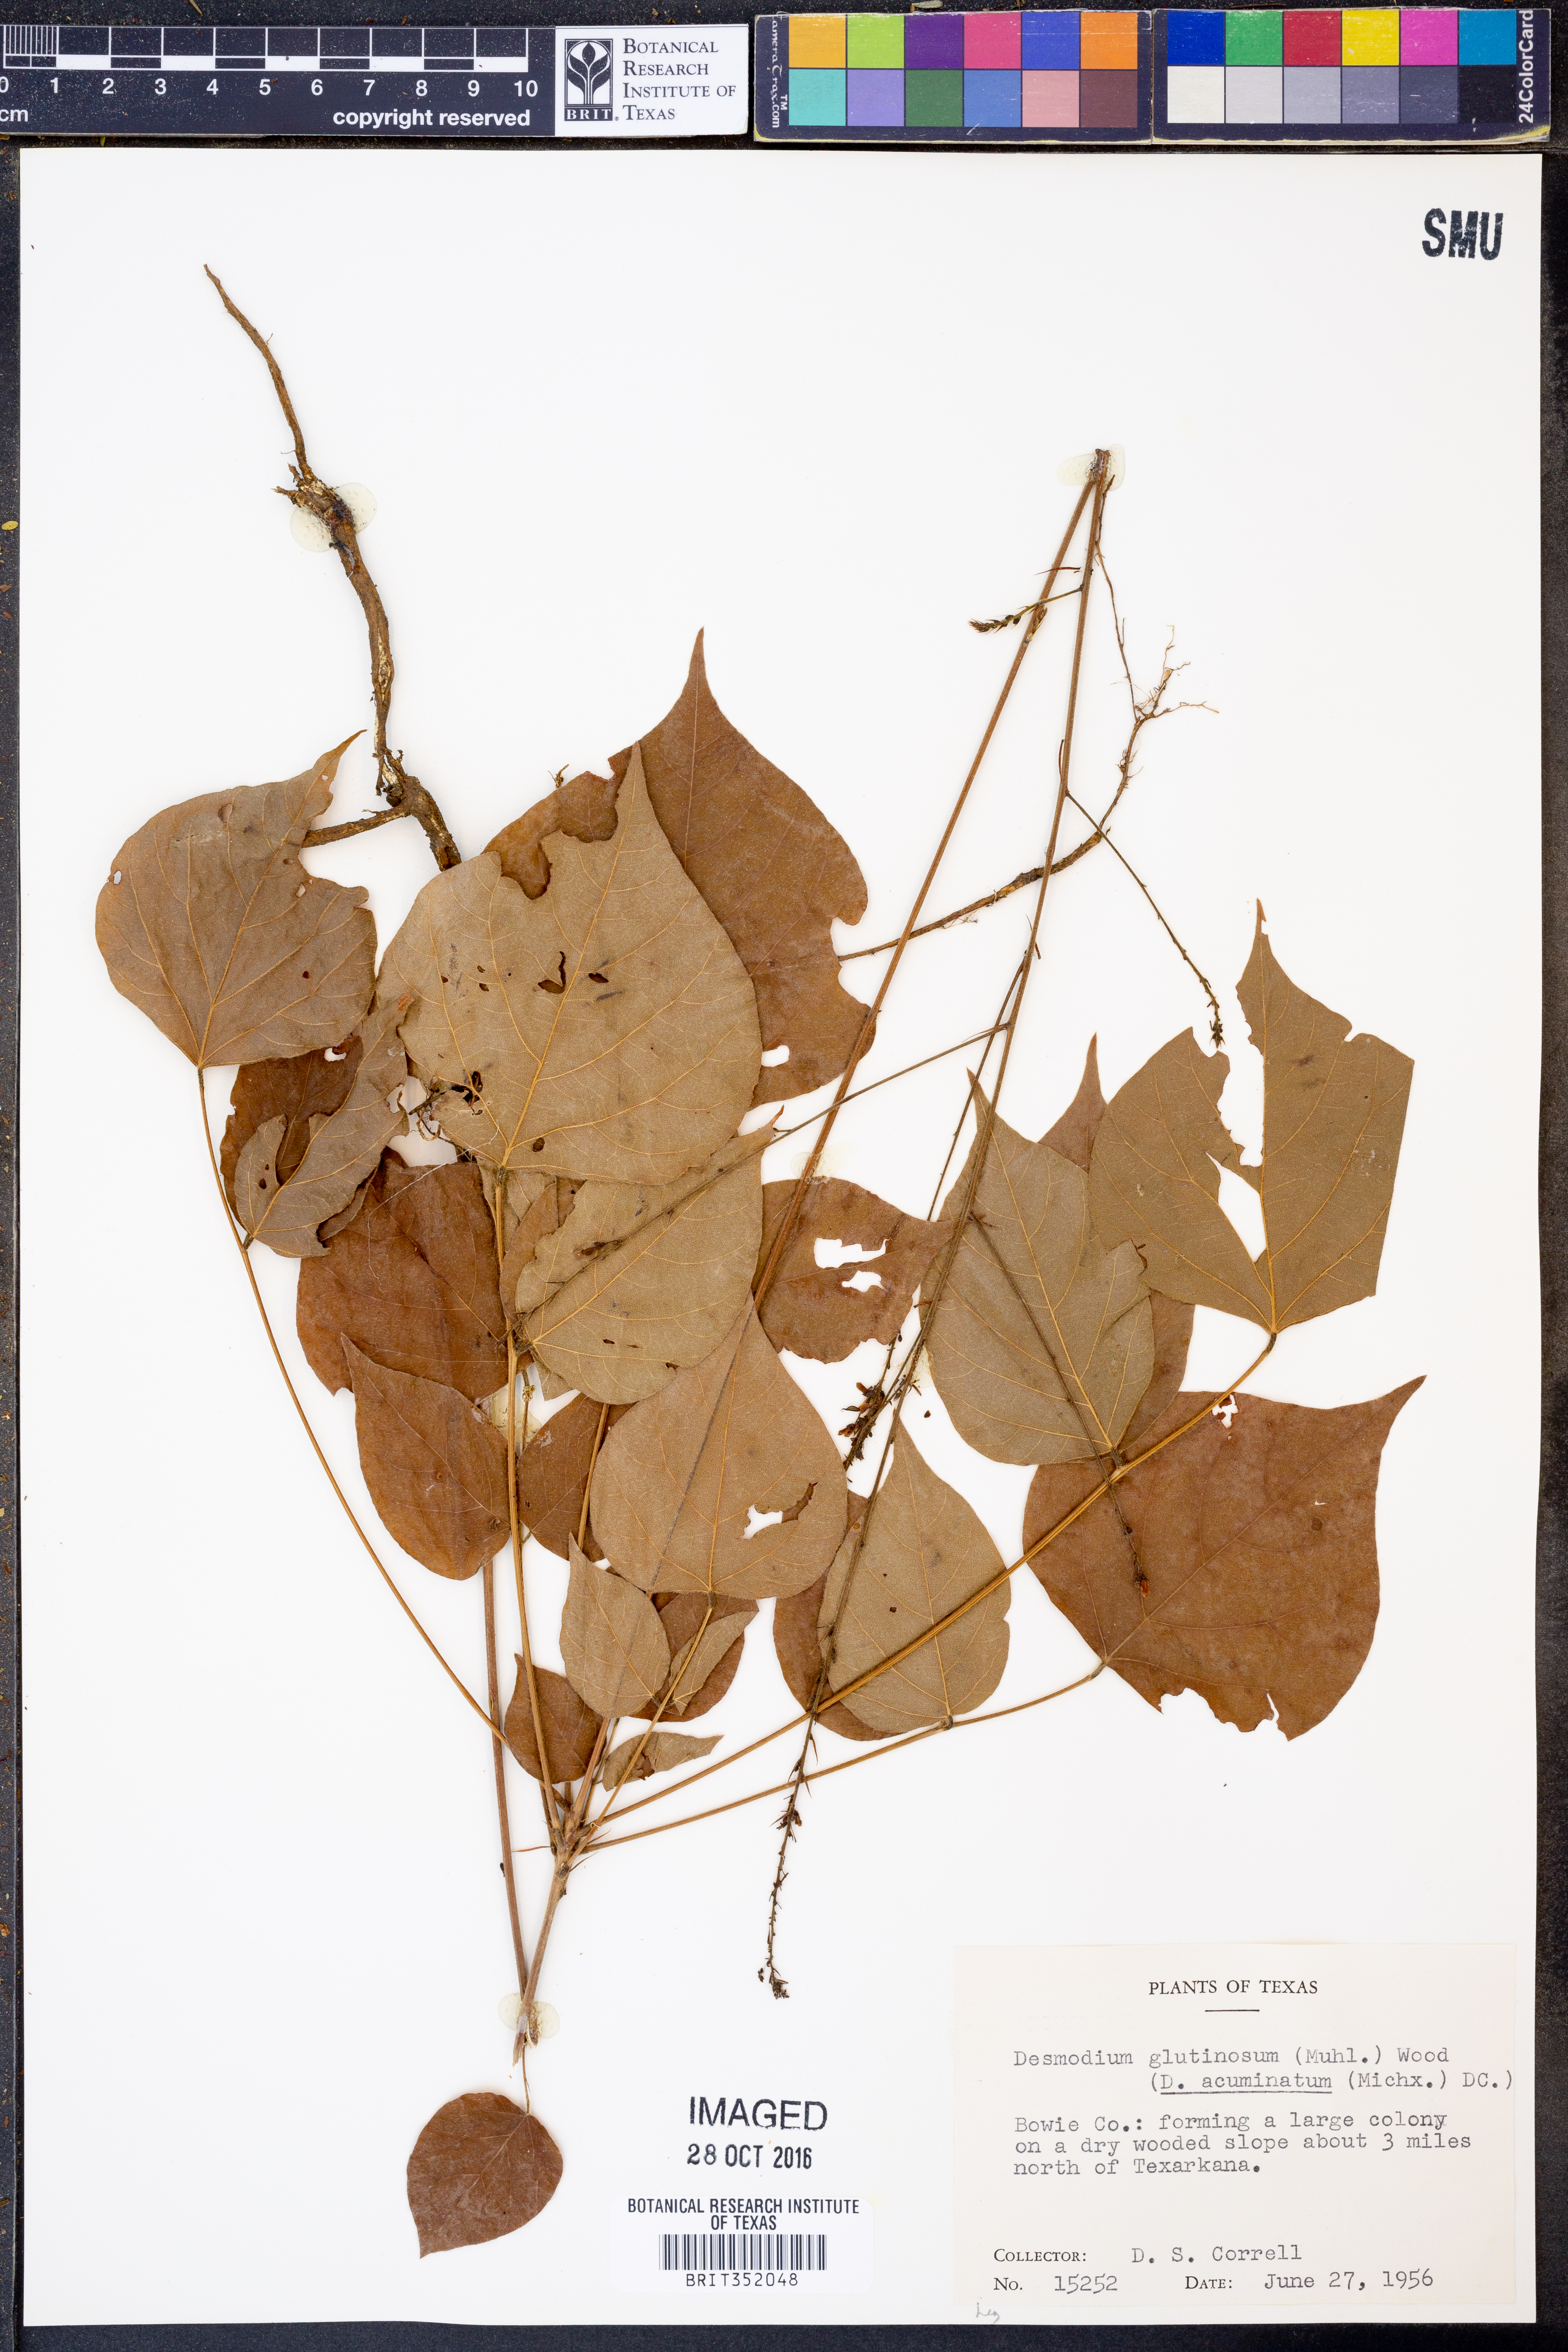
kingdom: Plantae
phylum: Tracheophyta
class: Magnoliopsida
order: Fabales
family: Fabaceae
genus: Hylodesmum
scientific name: Hylodesmum glutinosum
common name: Clustered-leaved tick-trefoil
